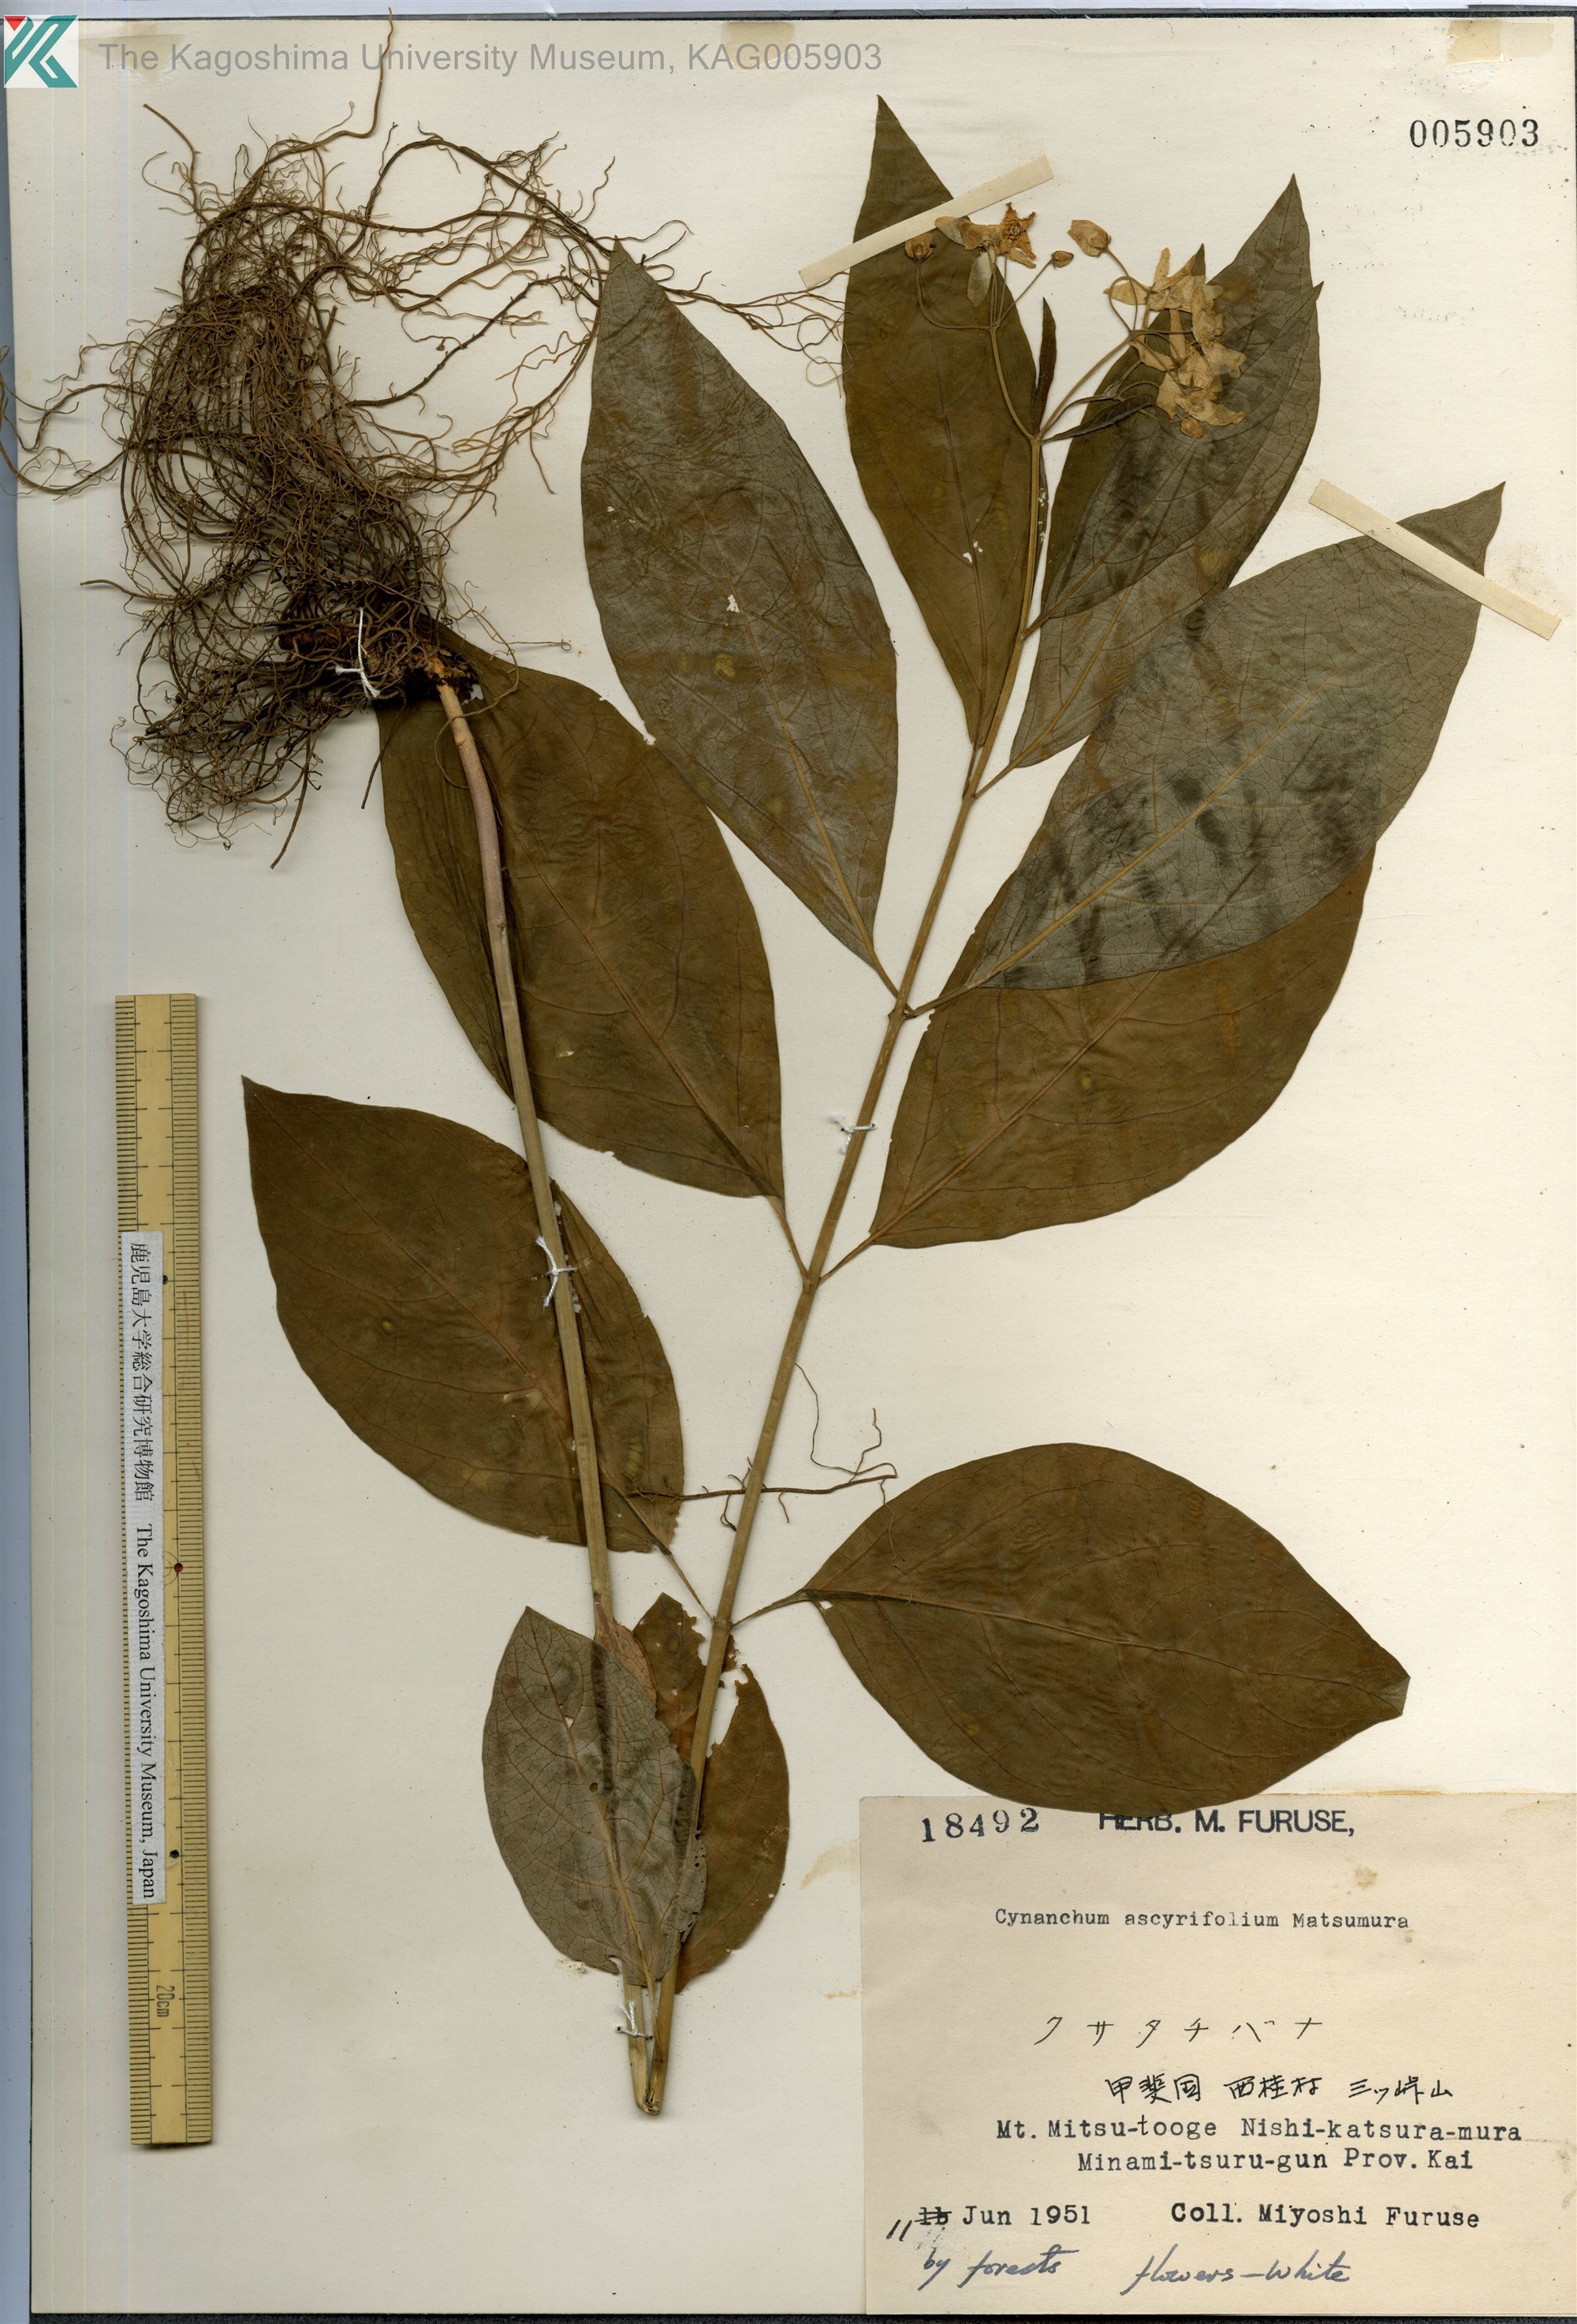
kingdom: Plantae
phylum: Tracheophyta
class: Magnoliopsida
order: Gentianales
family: Apocynaceae
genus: Vincetoxicum
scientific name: Vincetoxicum ascyrifolium
